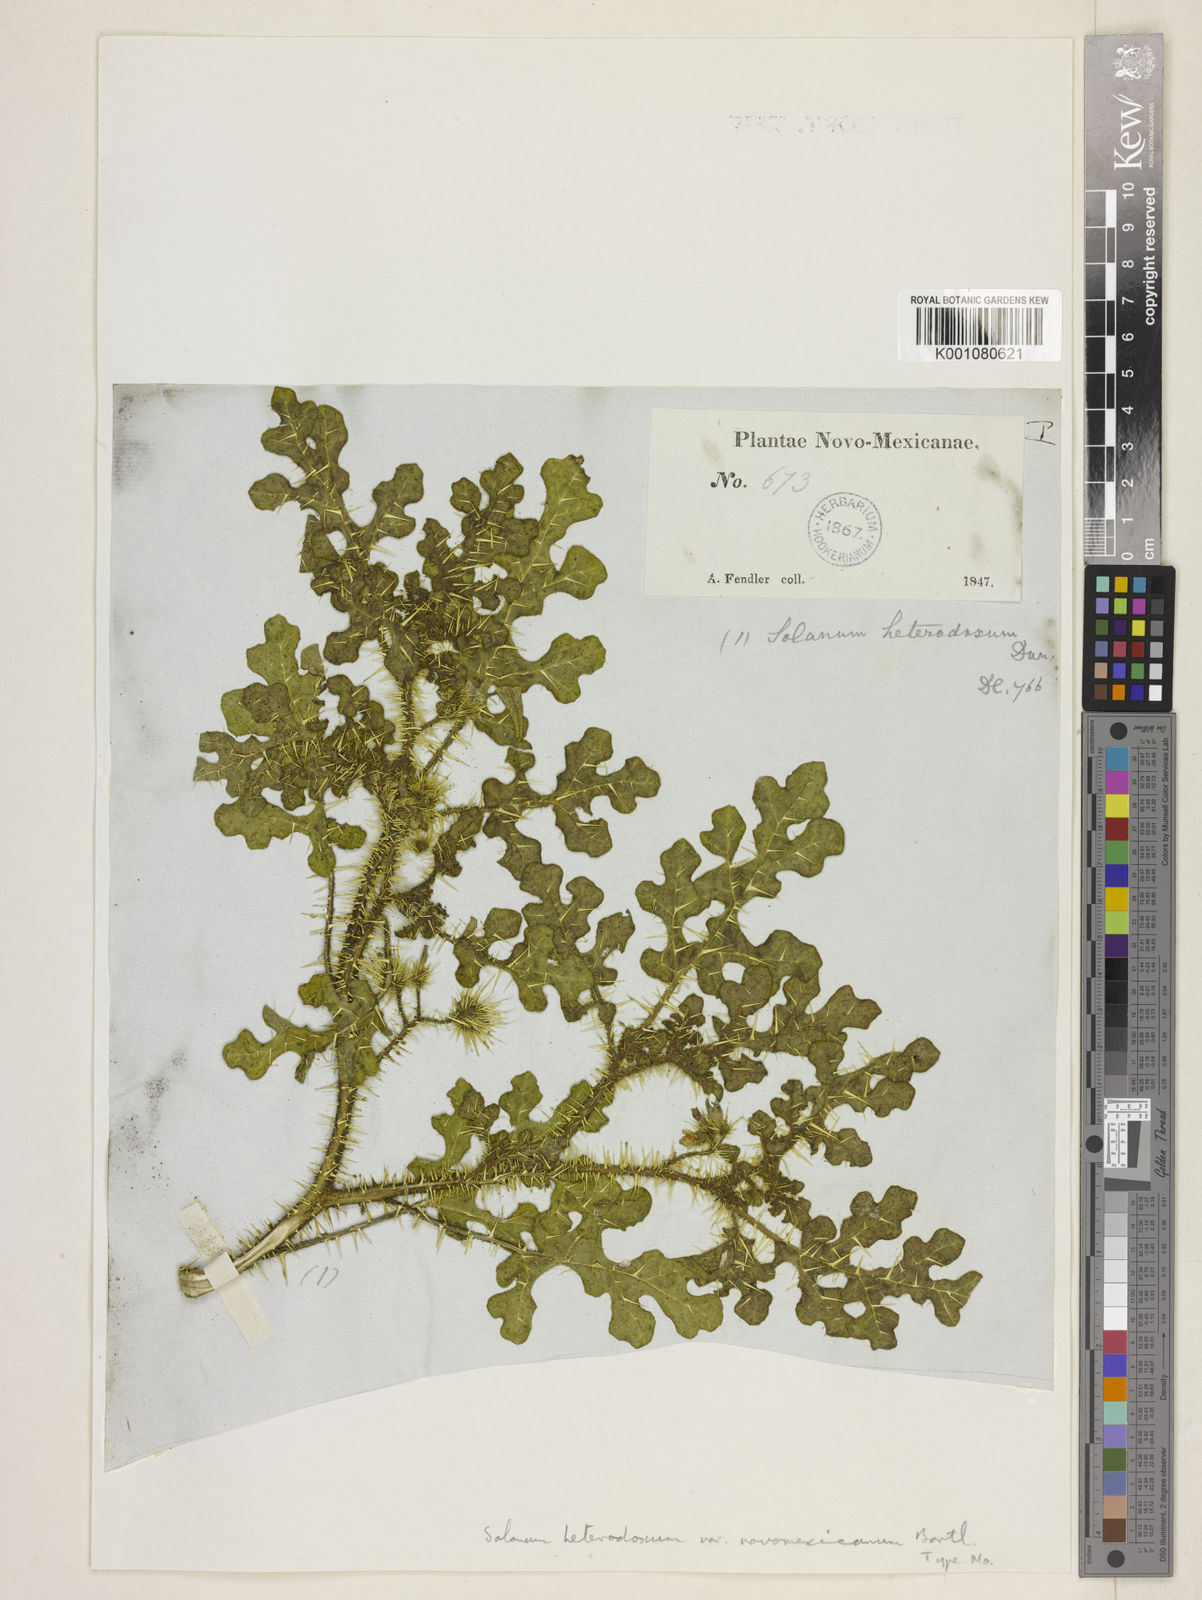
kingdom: Plantae
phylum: Tracheophyta
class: Magnoliopsida
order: Solanales
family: Solanaceae
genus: Solanum
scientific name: Solanum heterodoxum
